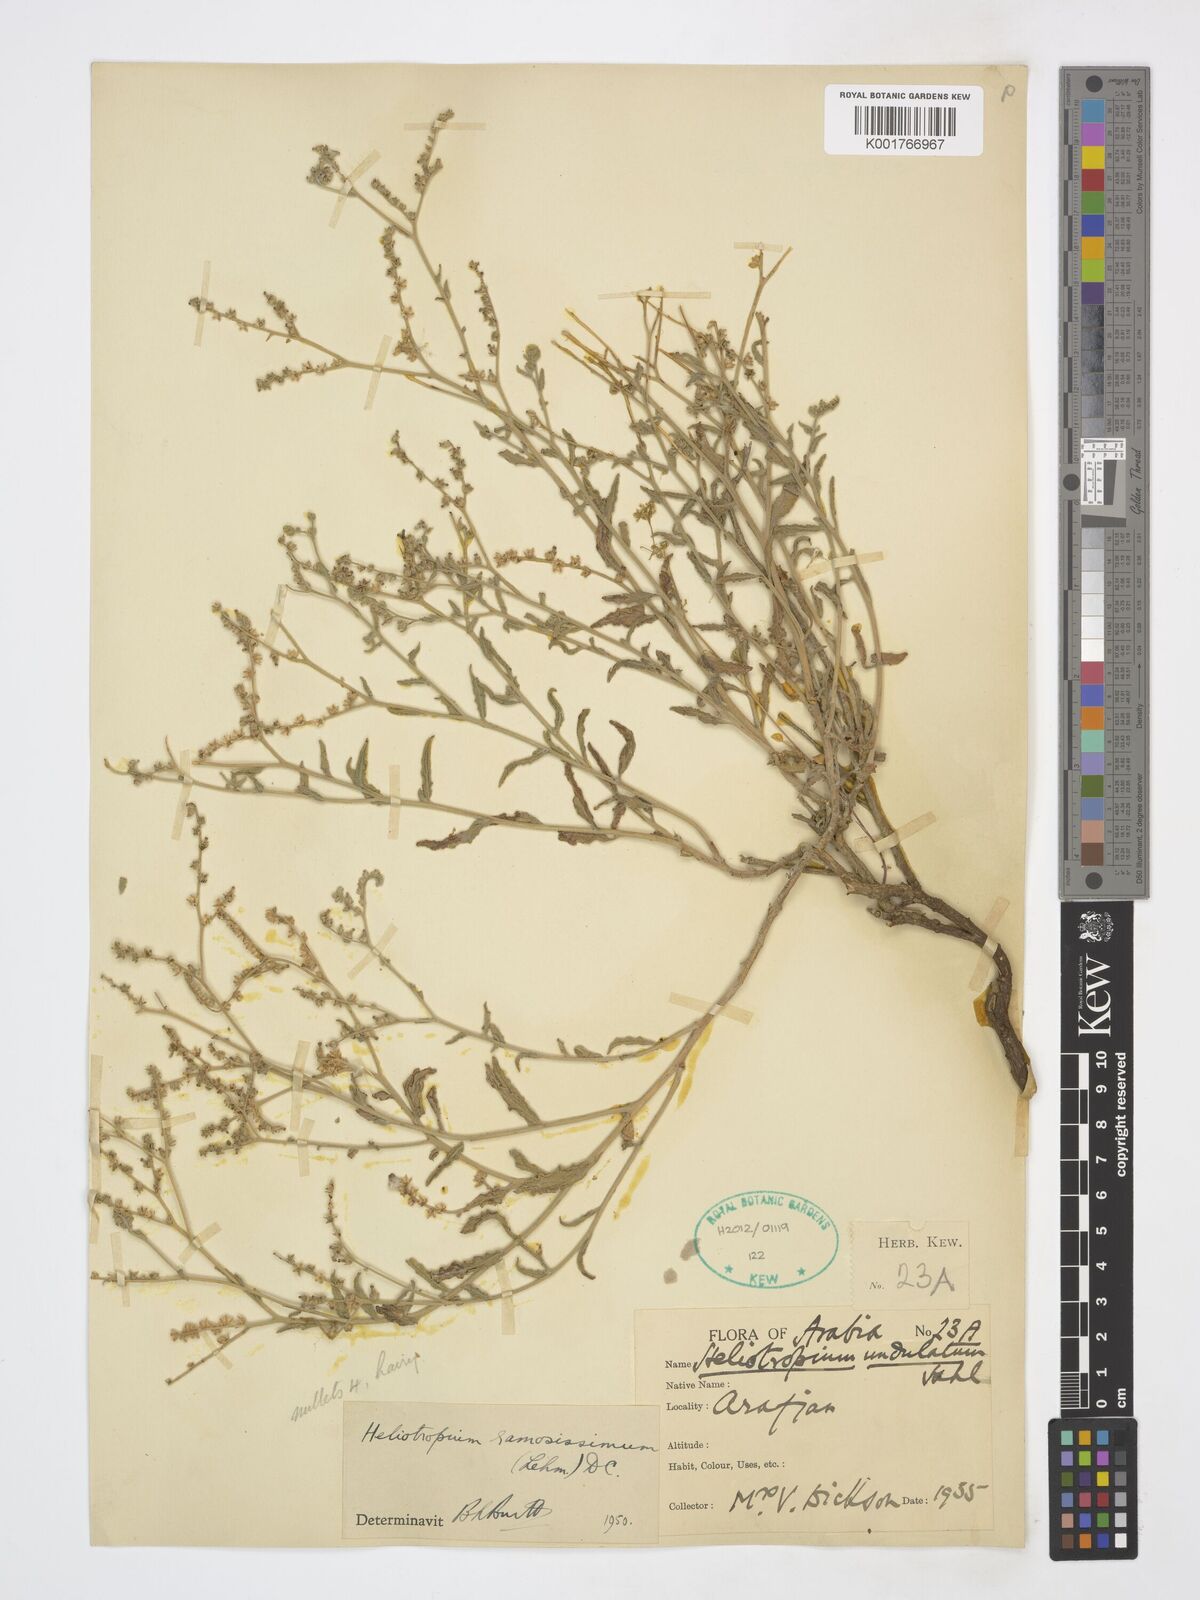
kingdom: Plantae
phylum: Tracheophyta
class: Magnoliopsida
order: Boraginales
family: Heliotropiaceae
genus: Heliotropium
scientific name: Heliotropium ramosissimum
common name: Wavy heliotrope
